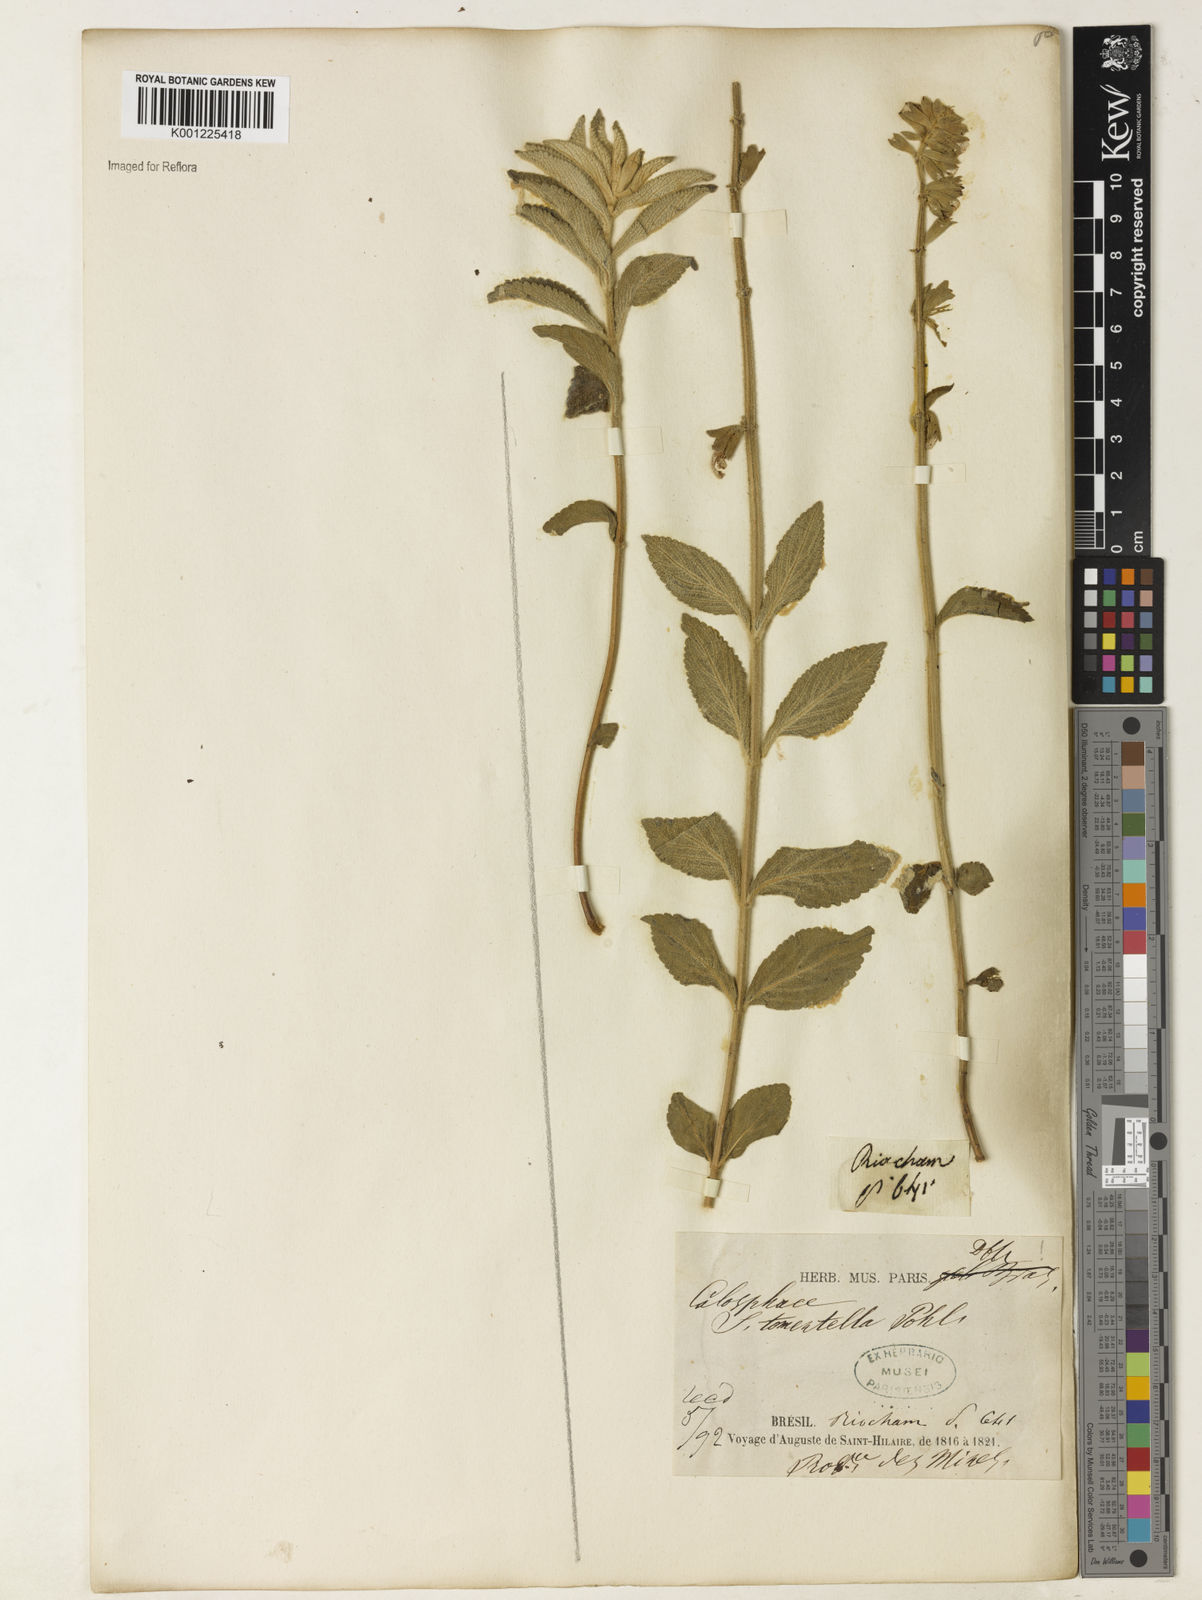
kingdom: Plantae
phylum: Tracheophyta
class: Magnoliopsida
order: Lamiales
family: Lamiaceae
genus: Salvia
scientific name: Salvia tomentella
